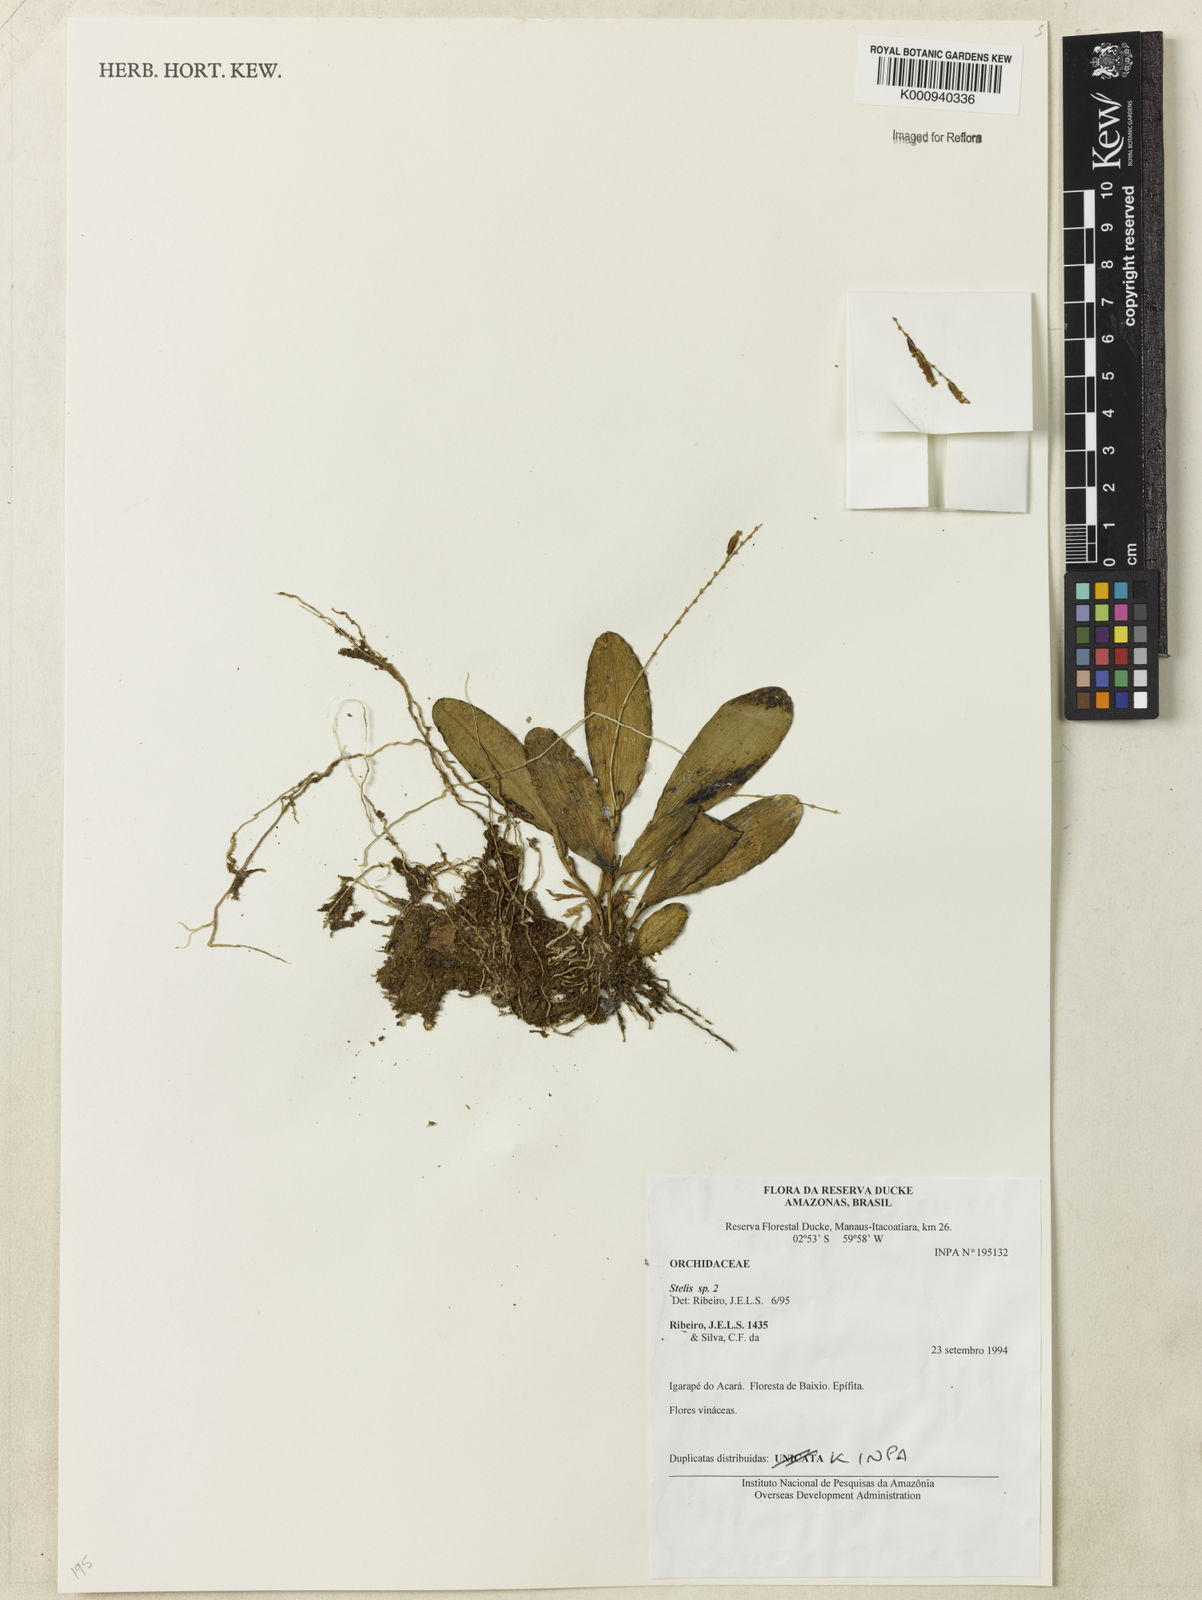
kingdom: Plantae
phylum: Tracheophyta
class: Liliopsida
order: Asparagales
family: Orchidaceae
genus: Stelis
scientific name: Stelis
